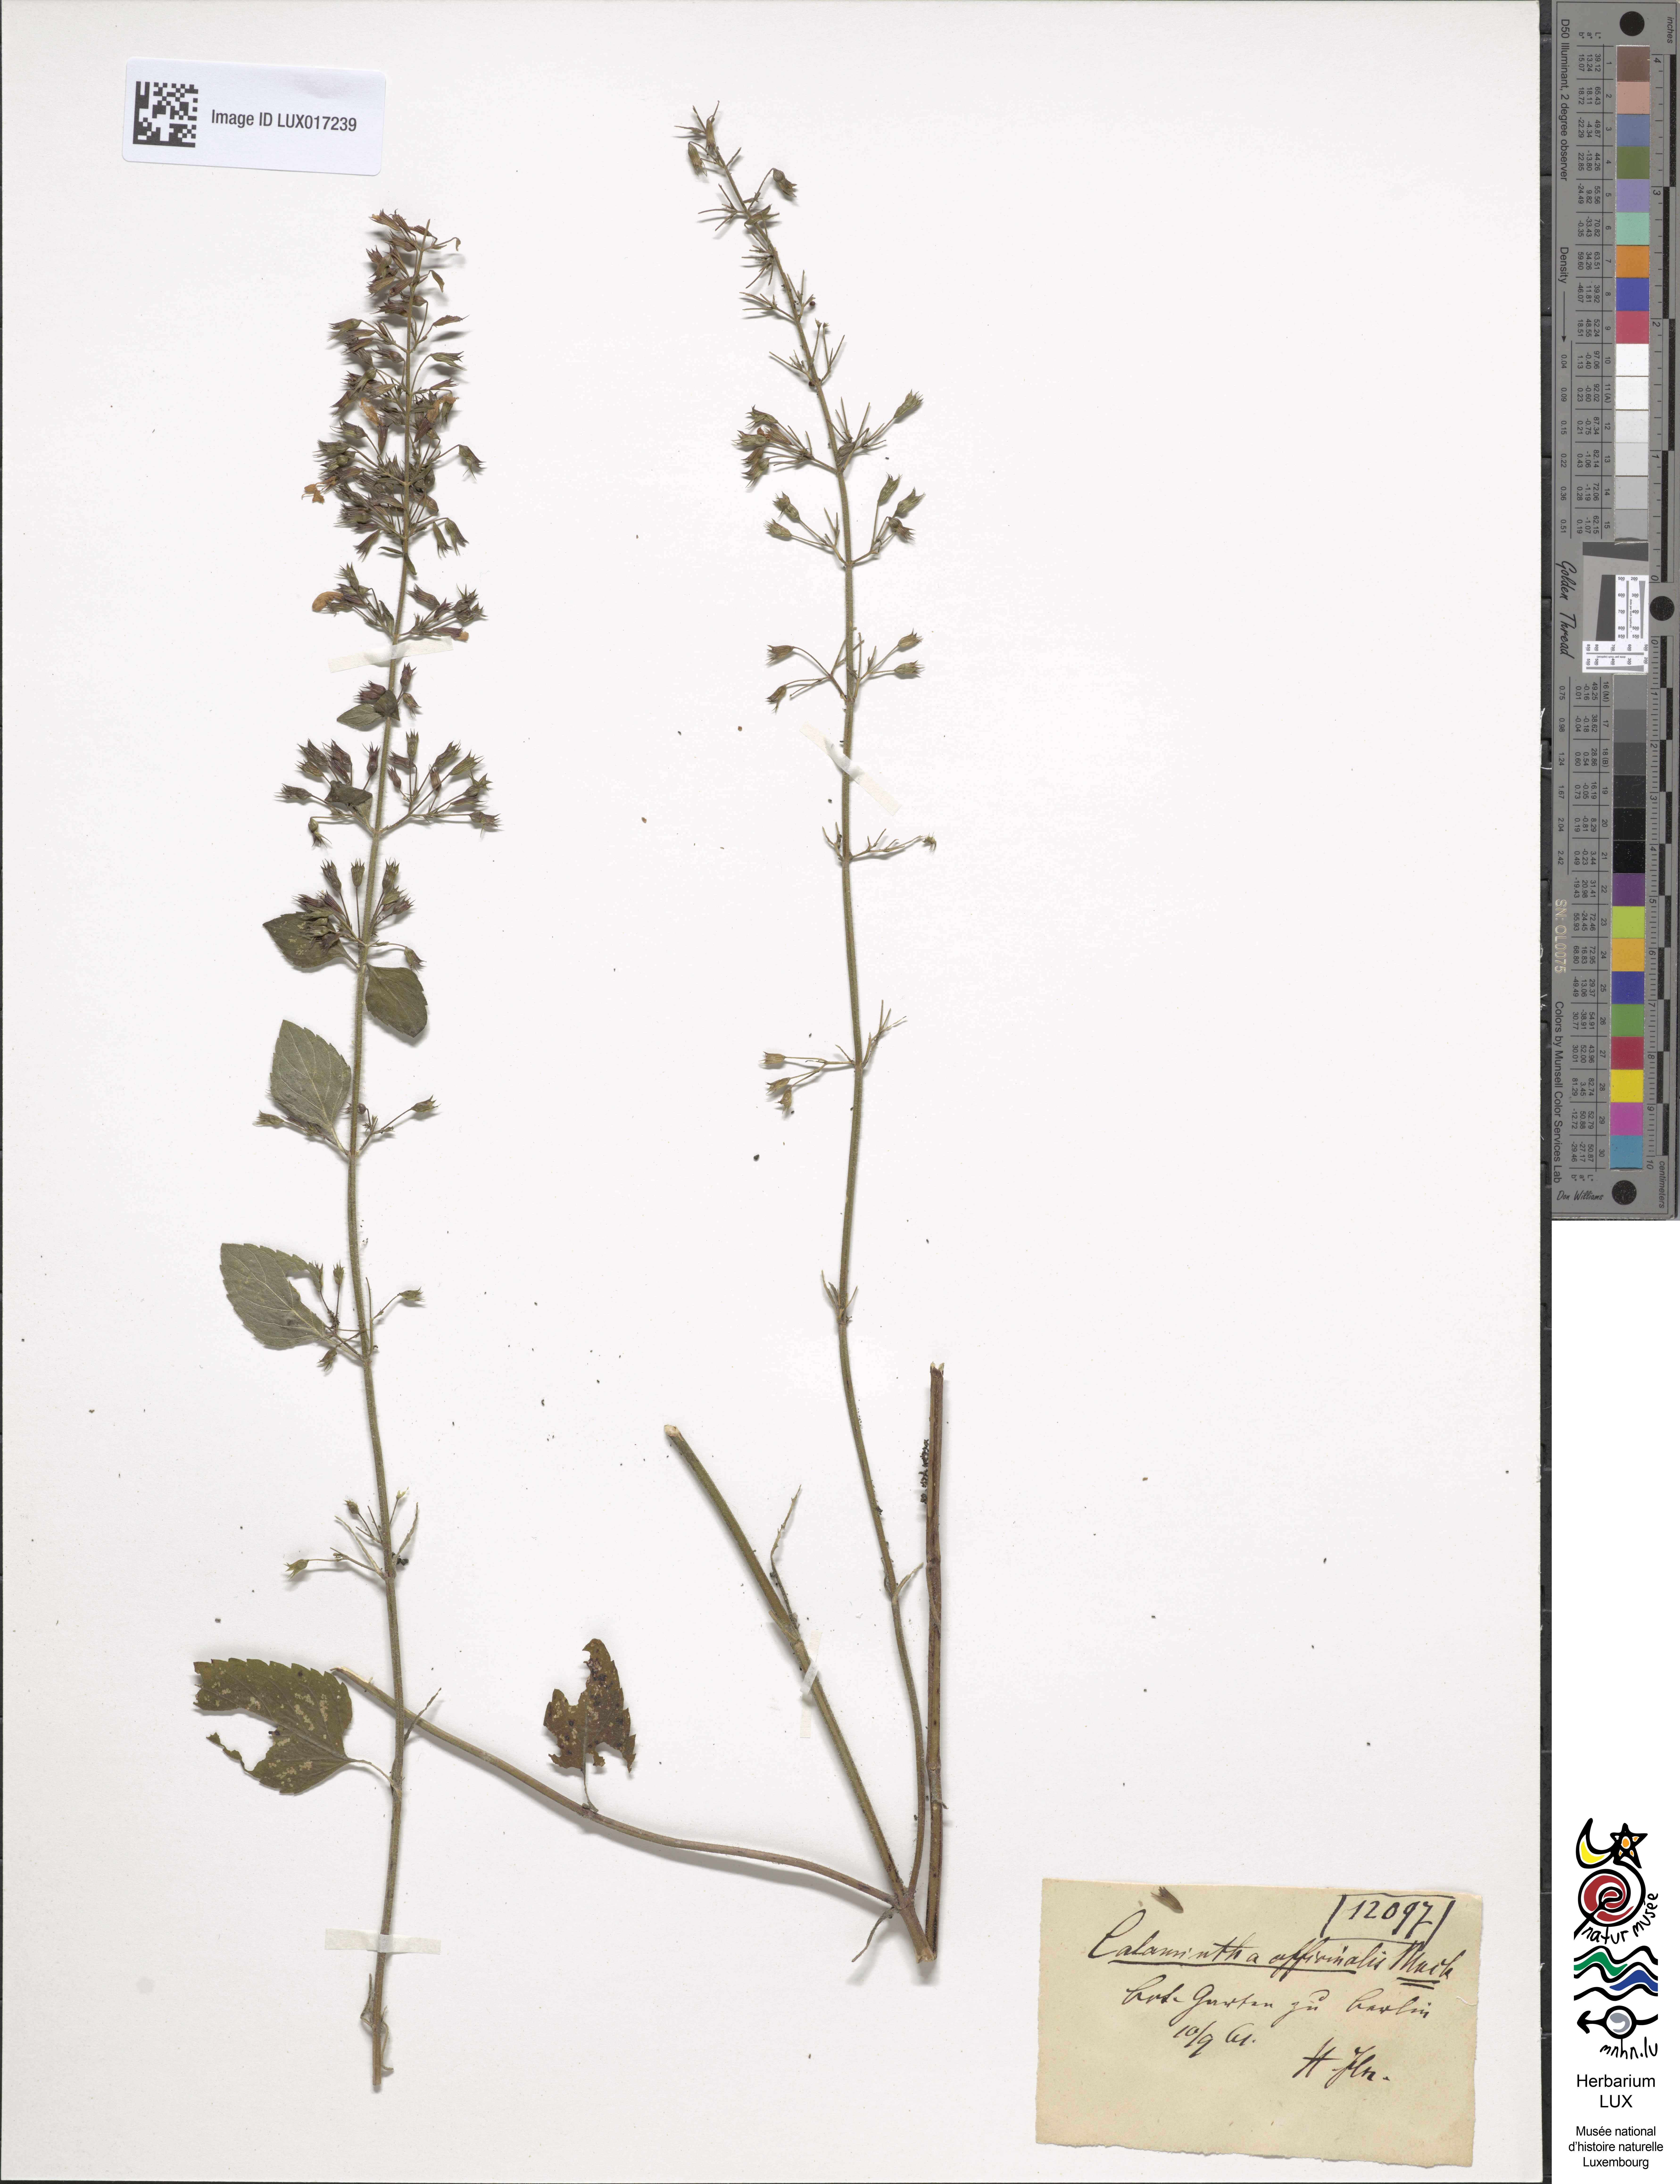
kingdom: Plantae
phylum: Tracheophyta
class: Magnoliopsida
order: Lamiales
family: Lamiaceae
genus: Clinopodium
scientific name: Clinopodium menthifolium
